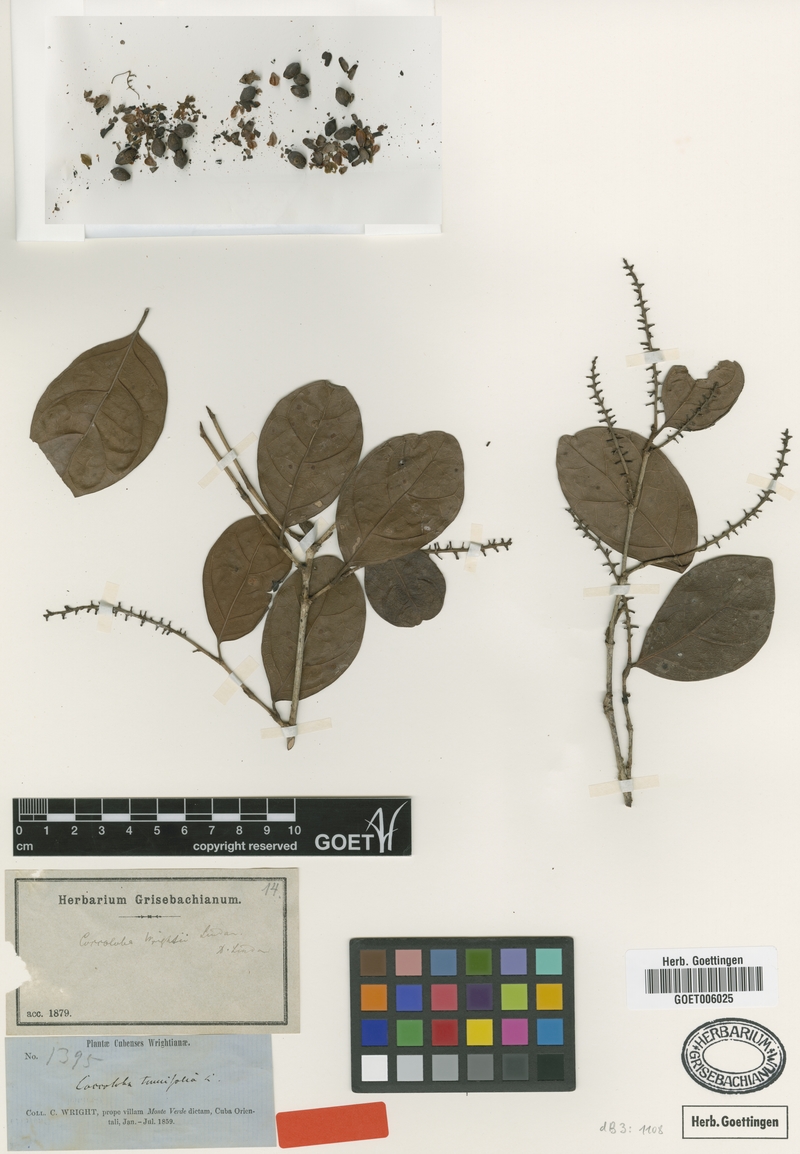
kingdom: Plantae
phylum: Tracheophyta
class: Magnoliopsida
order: Caryophyllales
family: Polygonaceae
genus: Coccoloba
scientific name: Coccoloba wrightii
